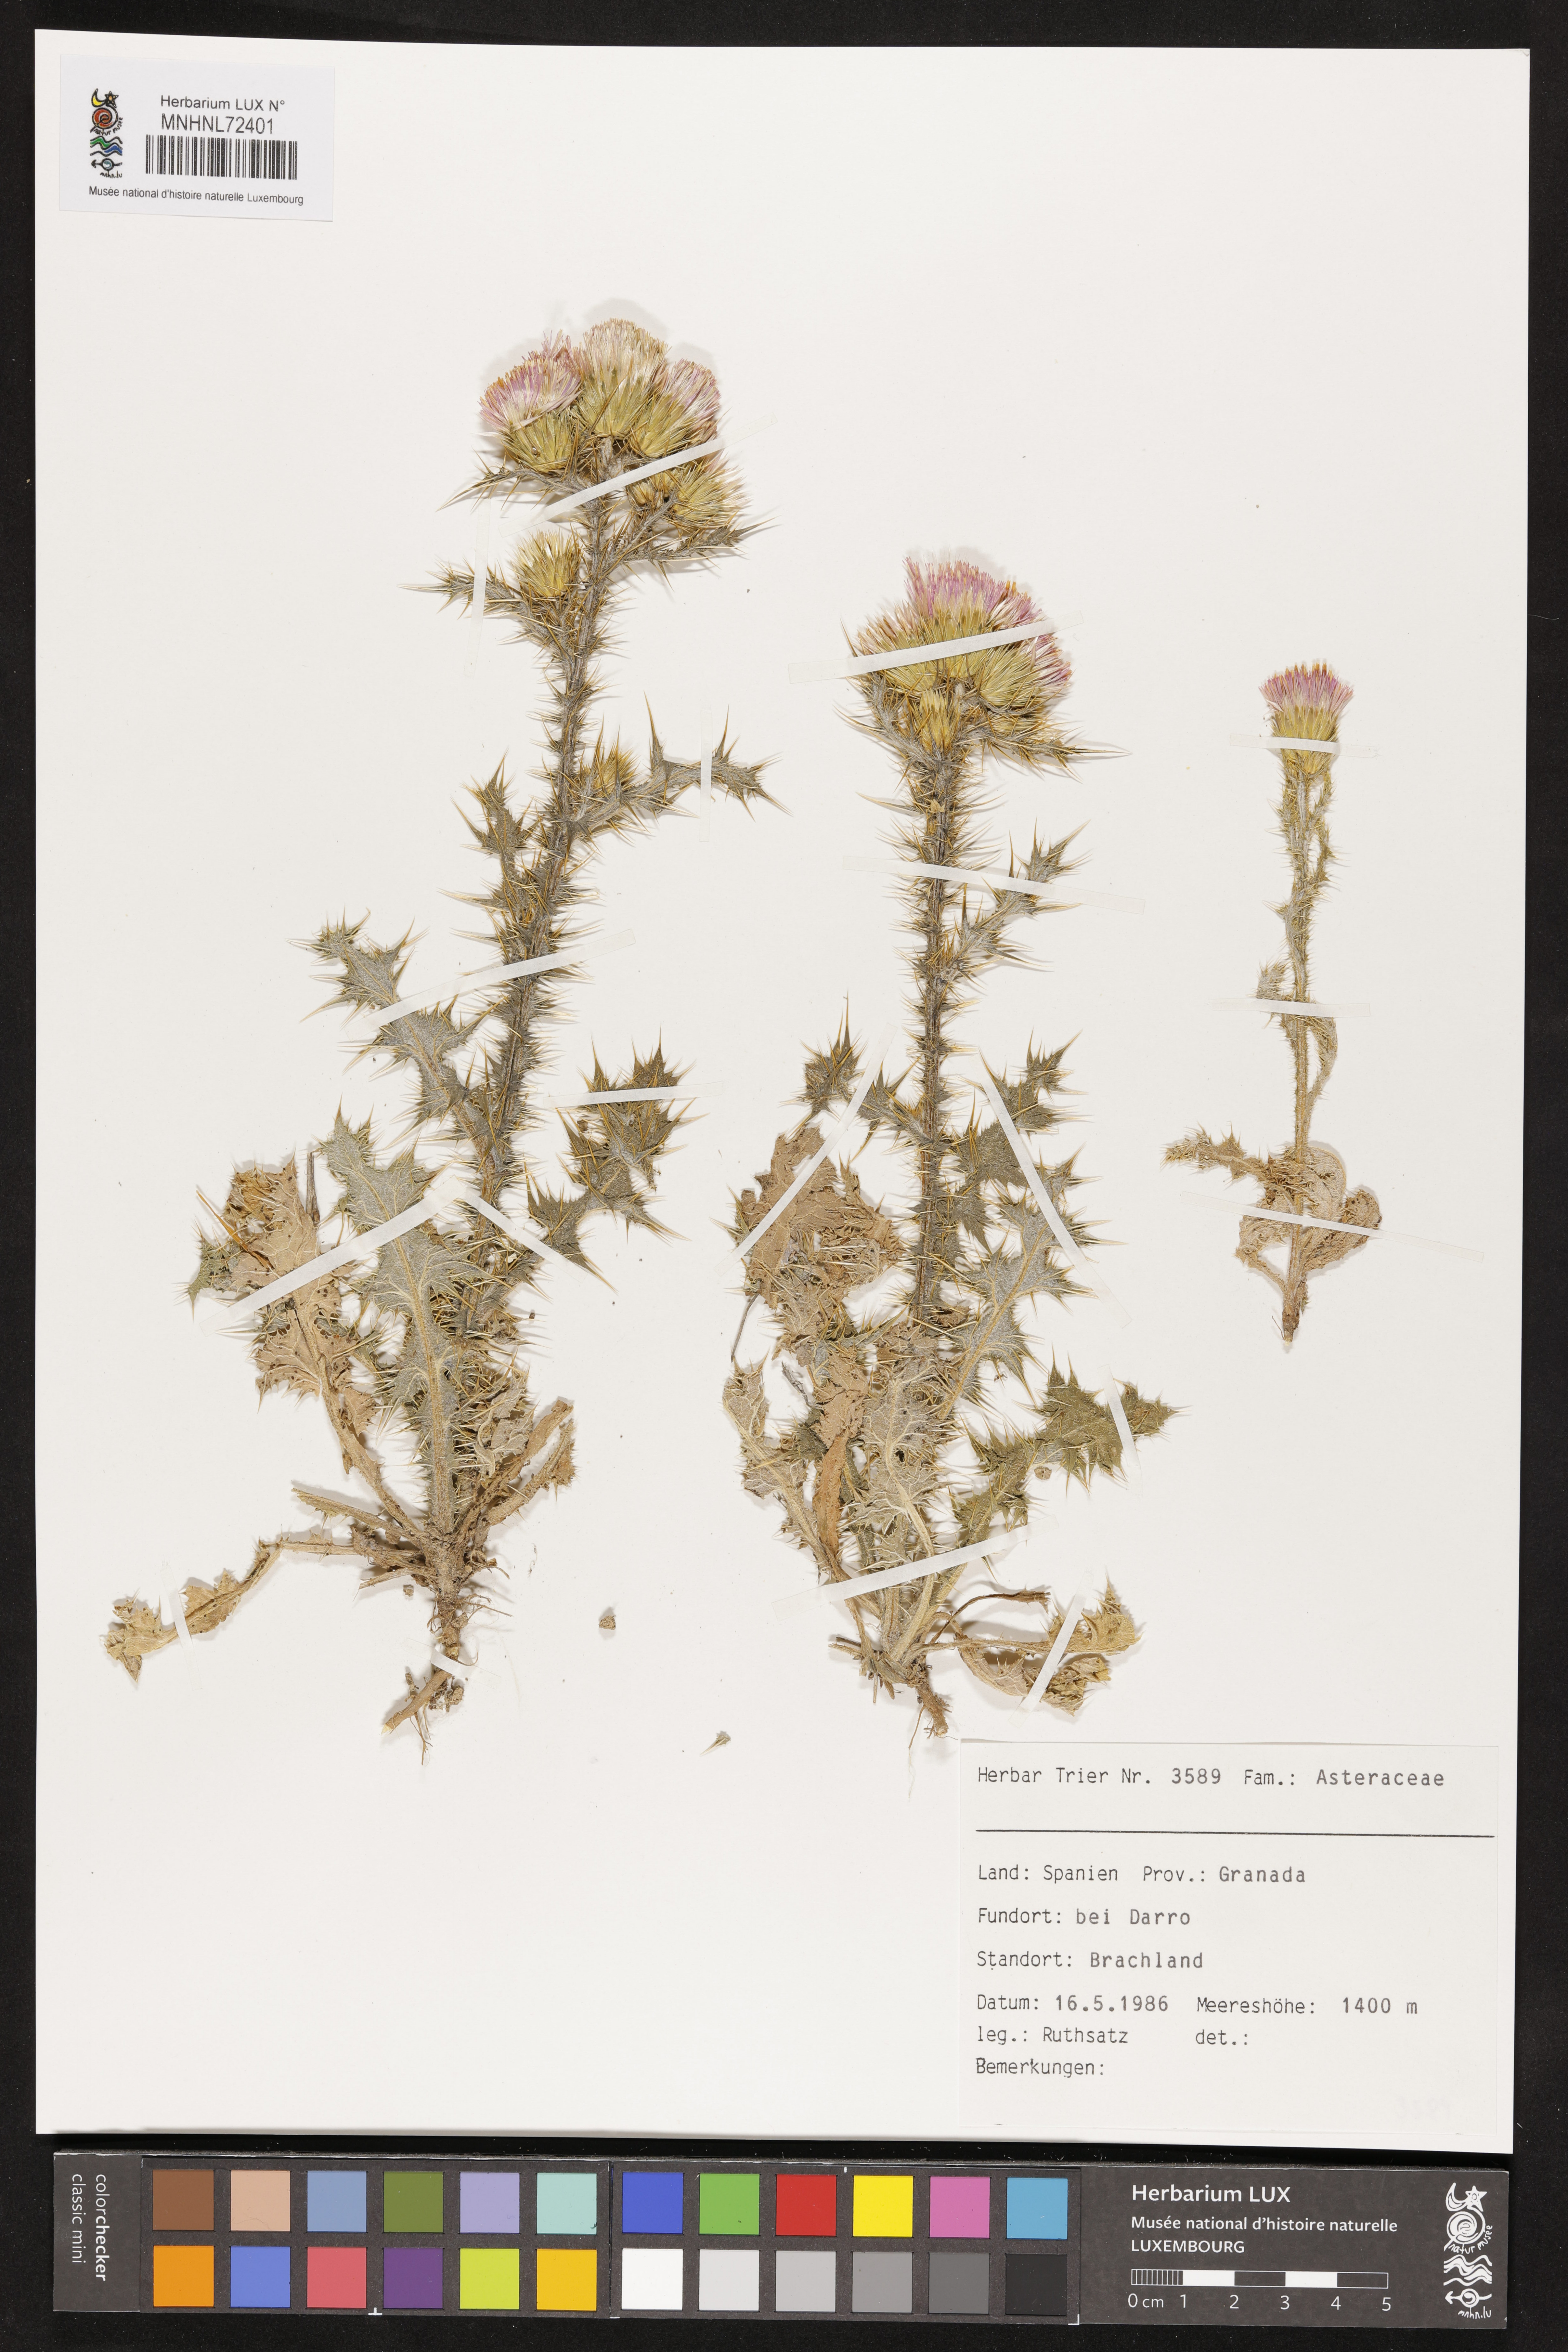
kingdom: Plantae
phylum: Tracheophyta
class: Magnoliopsida
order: Asterales
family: Asteraceae
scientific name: Asteraceae
